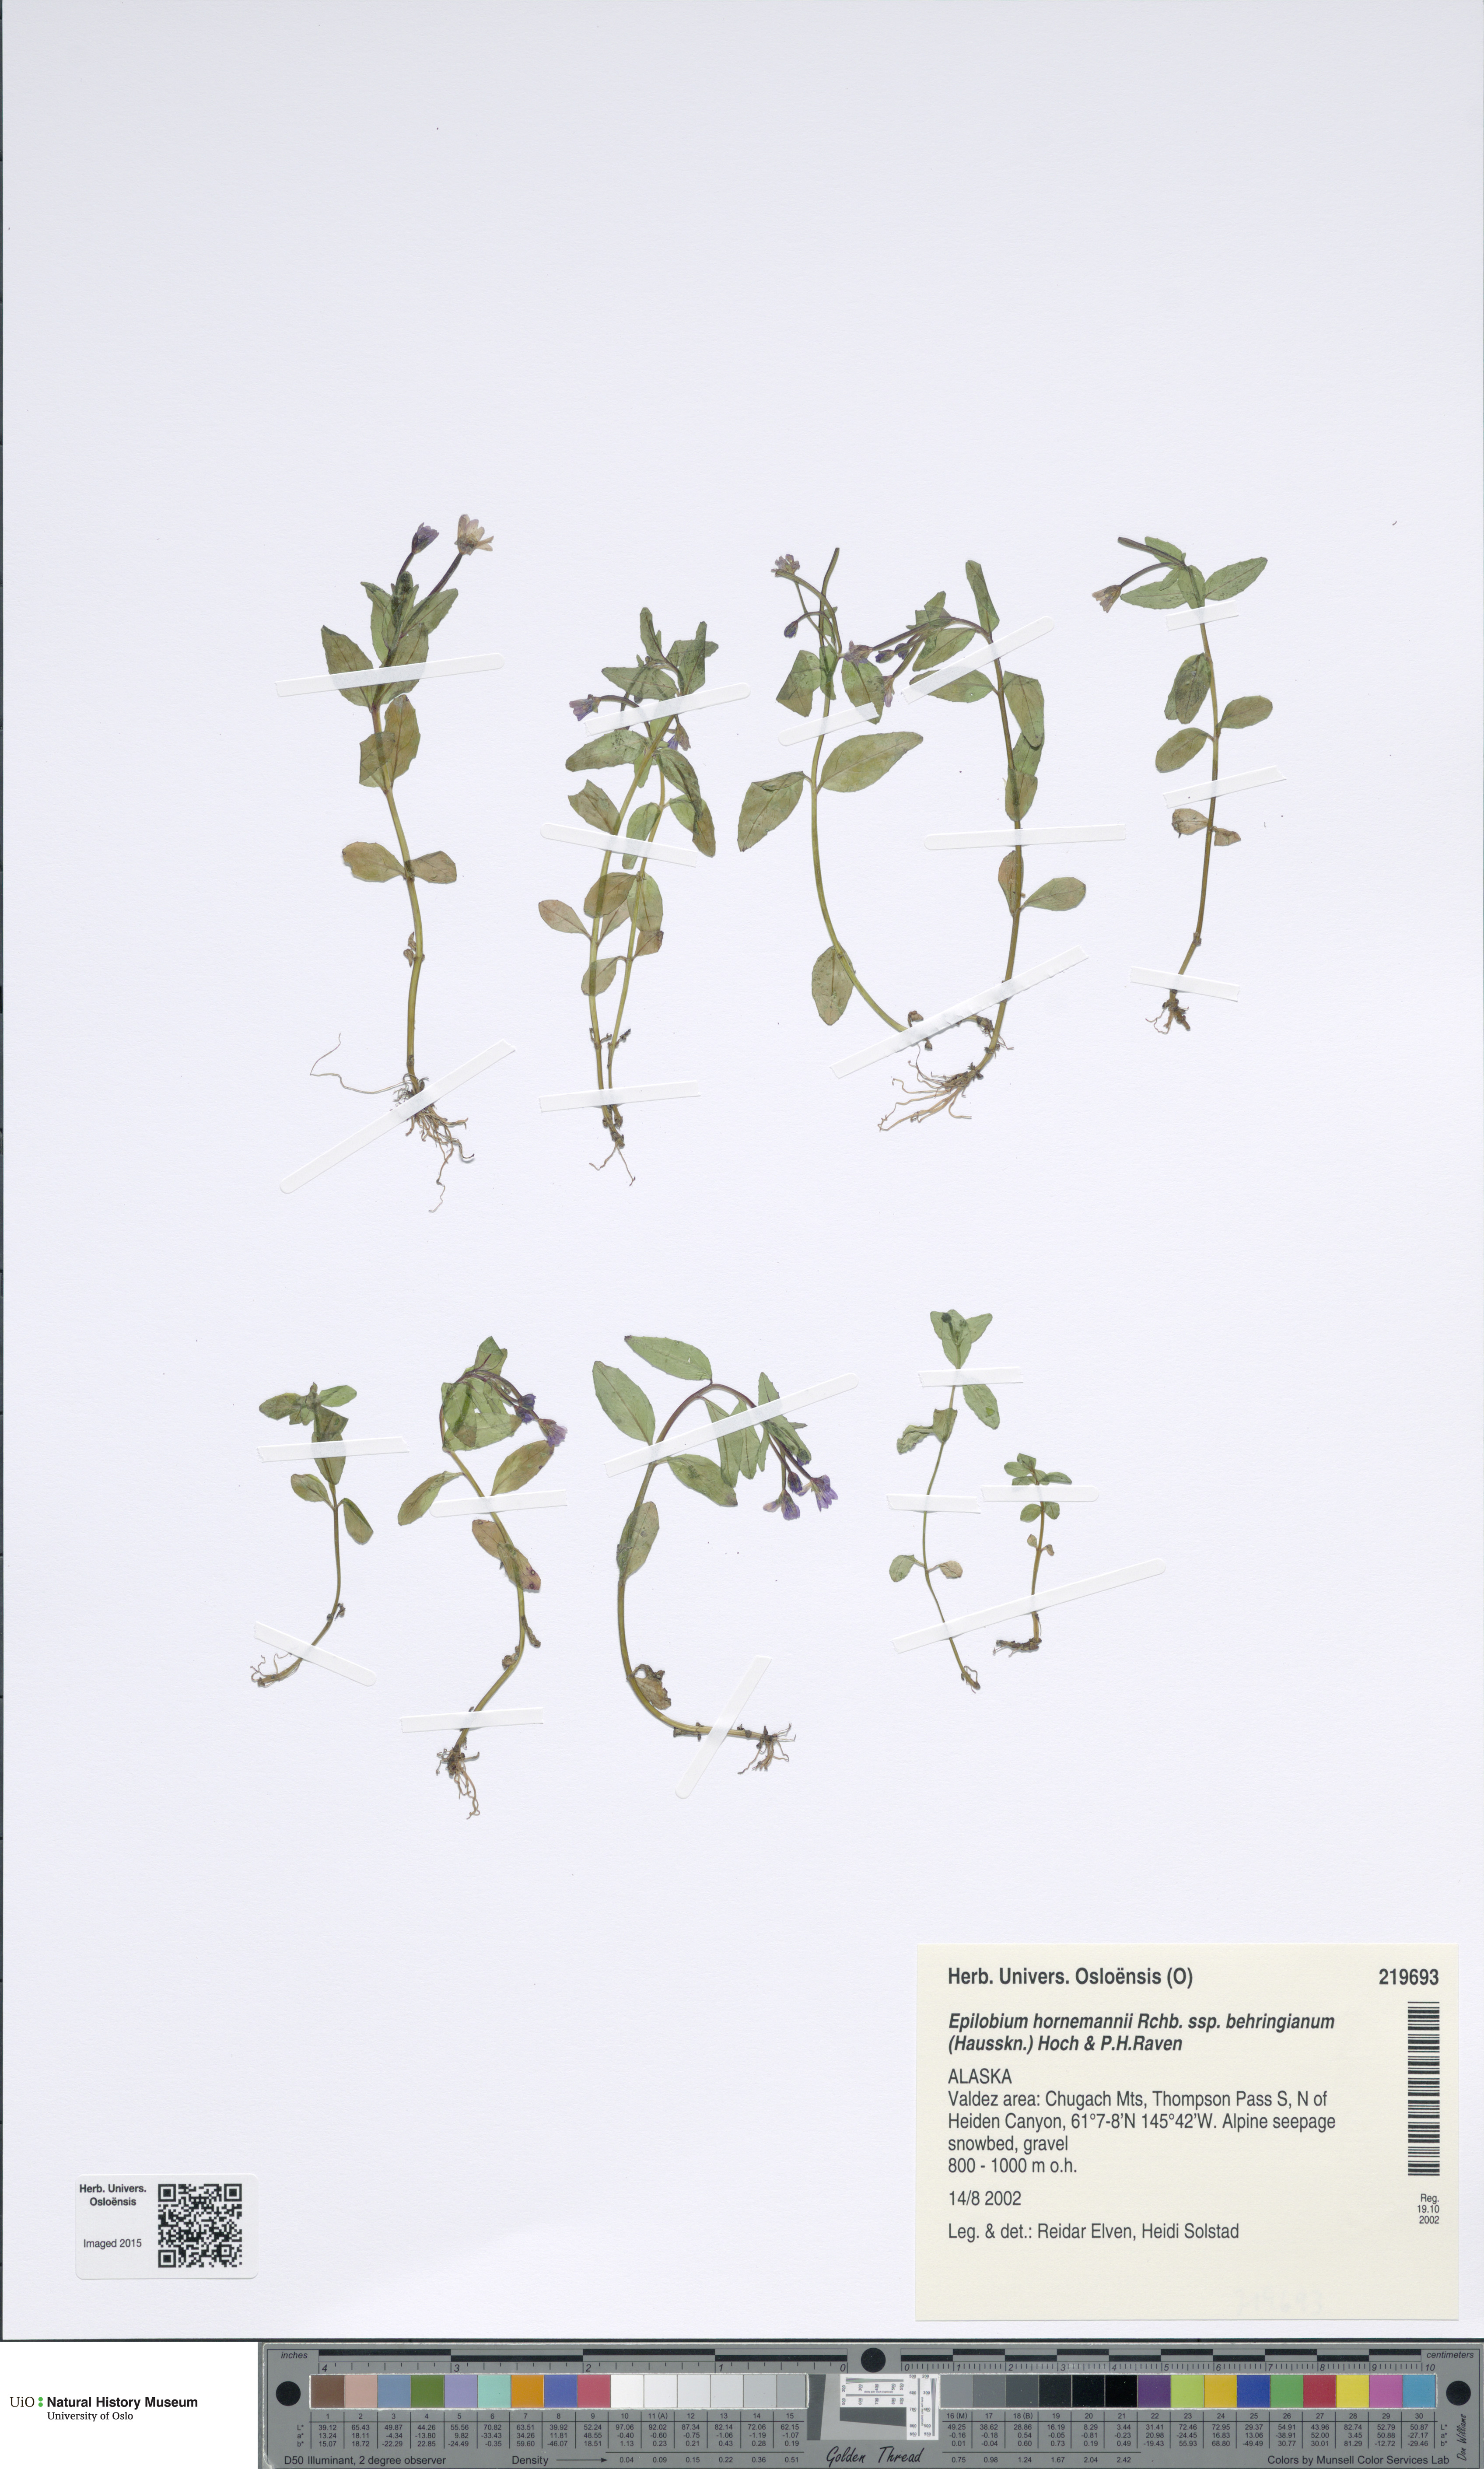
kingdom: Plantae
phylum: Tracheophyta
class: Magnoliopsida
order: Myrtales
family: Onagraceae
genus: Epilobium
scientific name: Epilobium hornemannii
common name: Hornemann's willowherb
